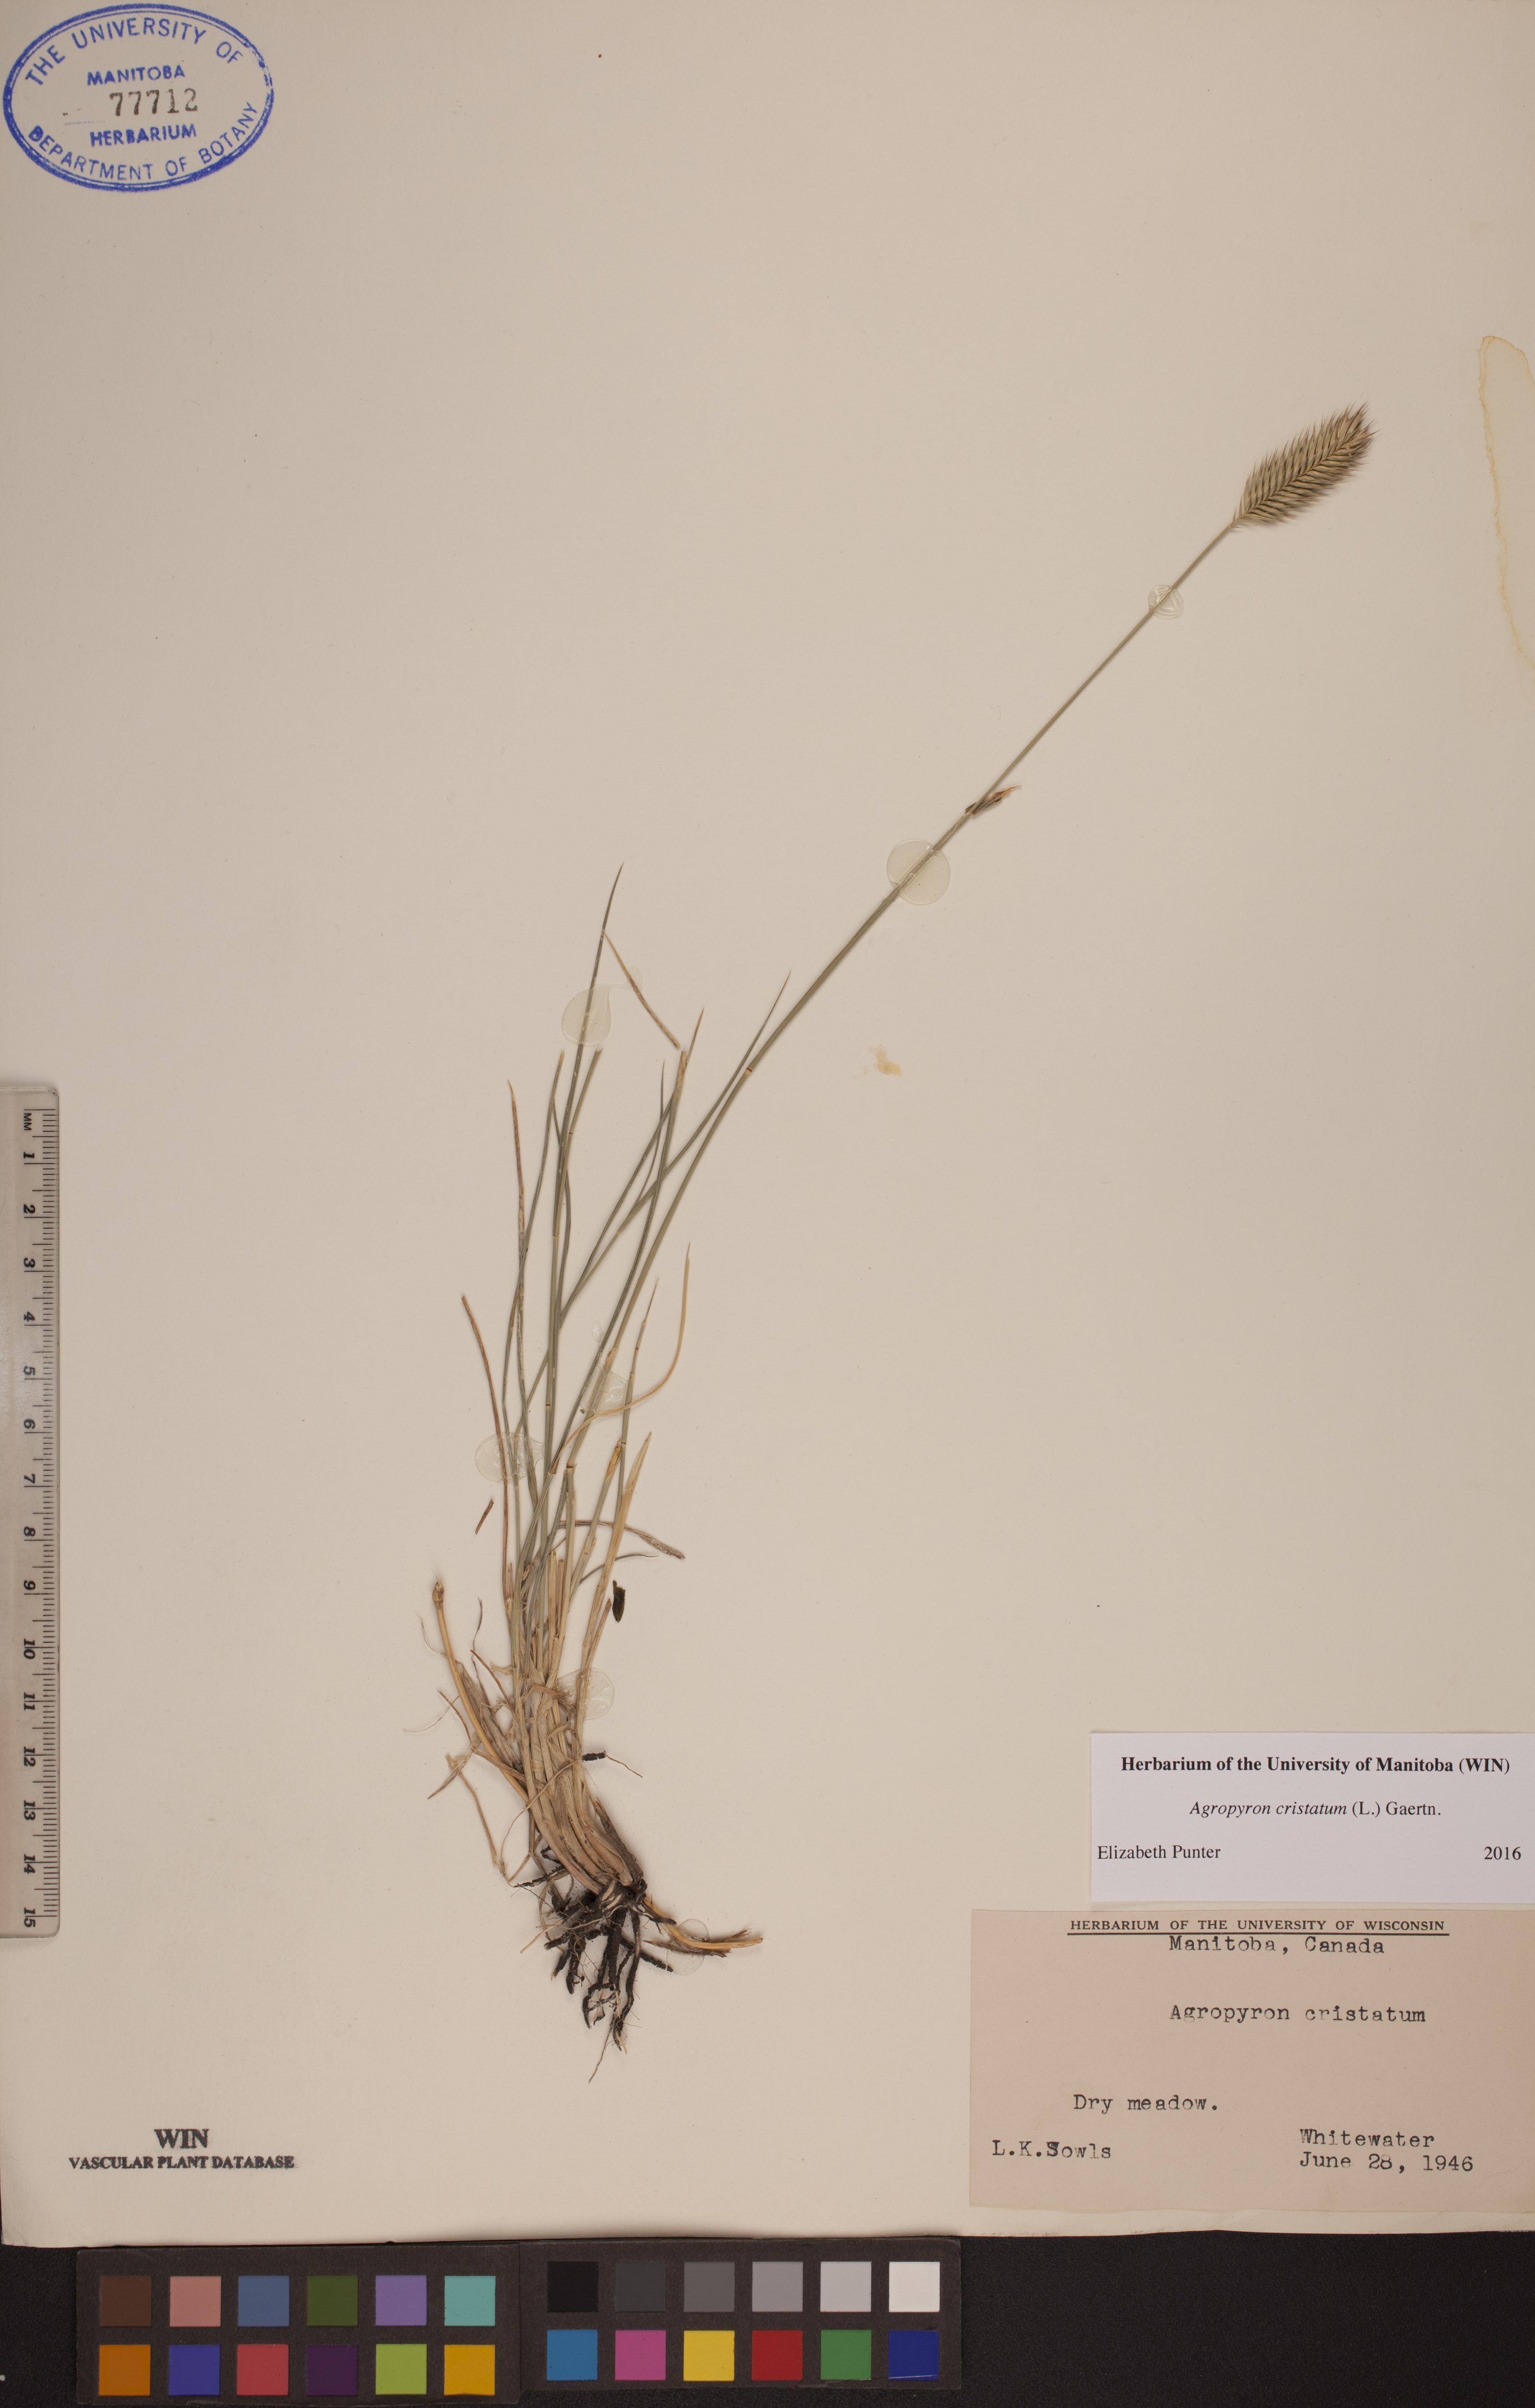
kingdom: Plantae
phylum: Tracheophyta
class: Liliopsida
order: Poales
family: Poaceae
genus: Agropyron
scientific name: Agropyron cristatum
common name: Crested wheatgrass
